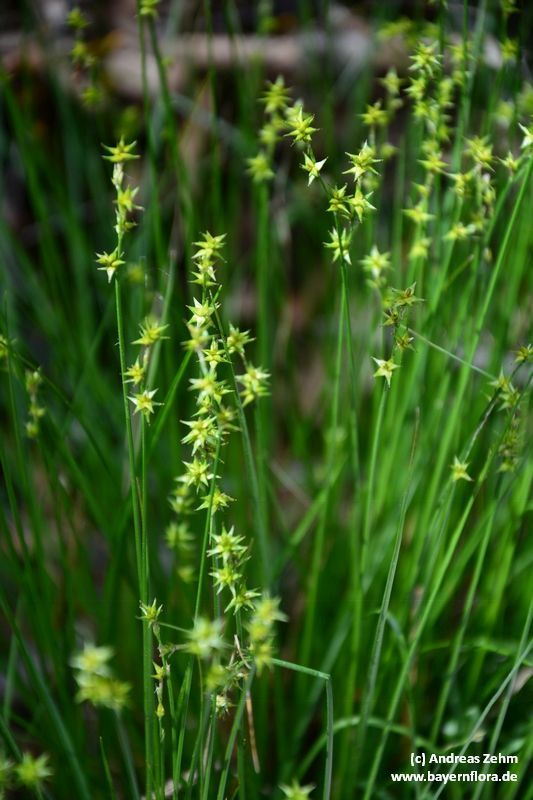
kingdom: Plantae
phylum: Tracheophyta
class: Liliopsida
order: Poales
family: Cyperaceae
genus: Carex
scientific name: Carex echinata
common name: Star sedge
